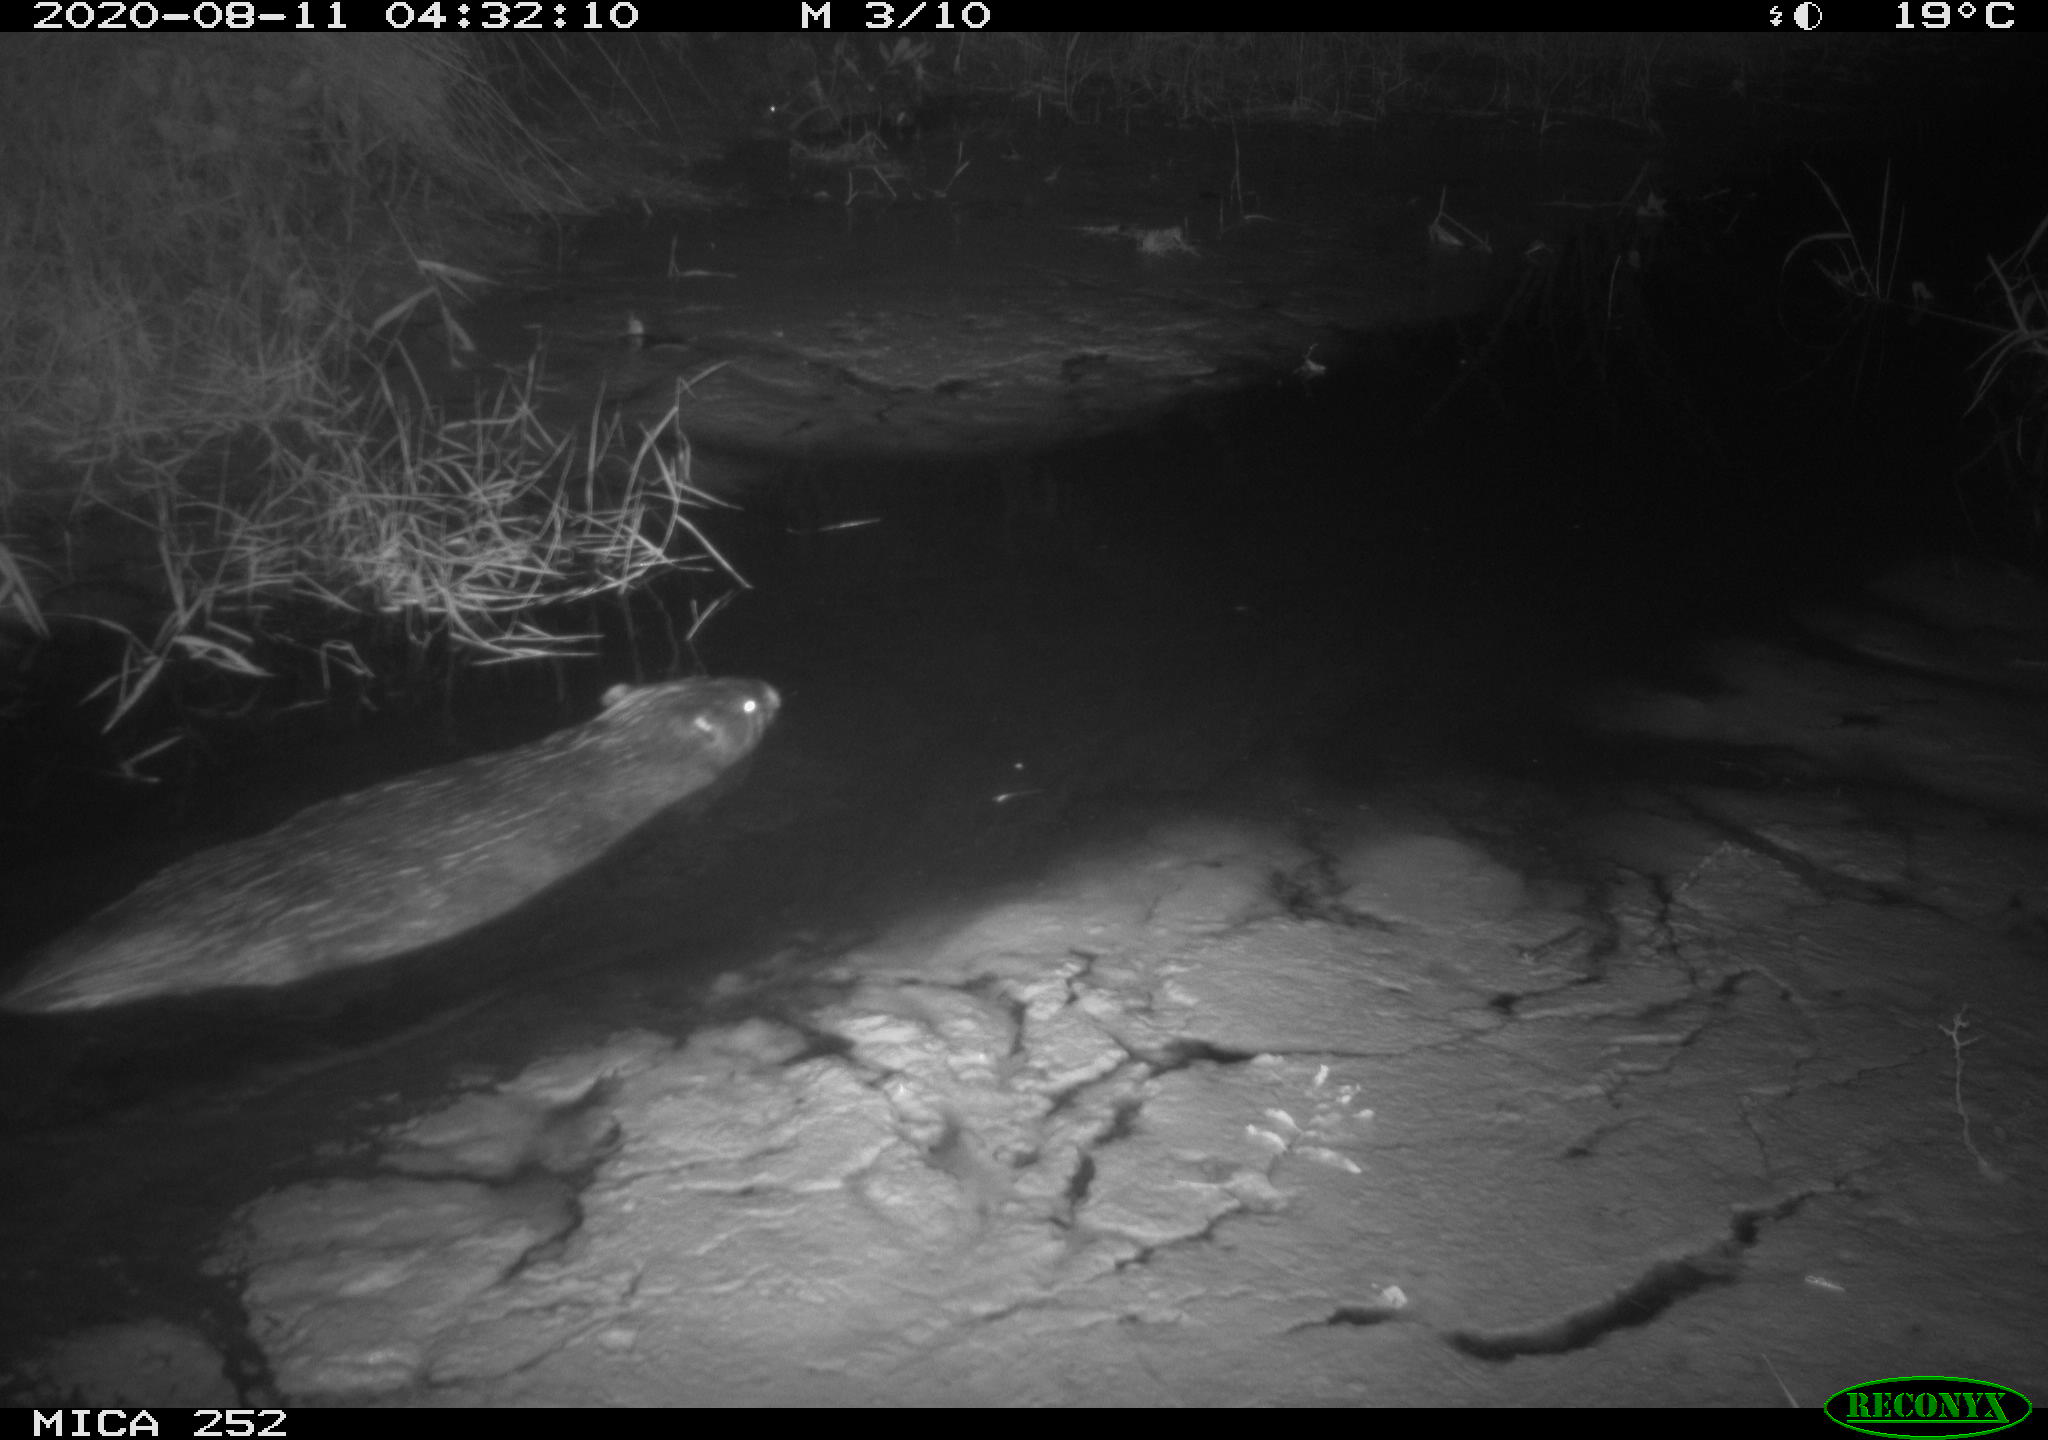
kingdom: Animalia
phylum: Chordata
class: Mammalia
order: Rodentia
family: Castoridae
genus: Castor
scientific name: Castor fiber
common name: Eurasian beaver
